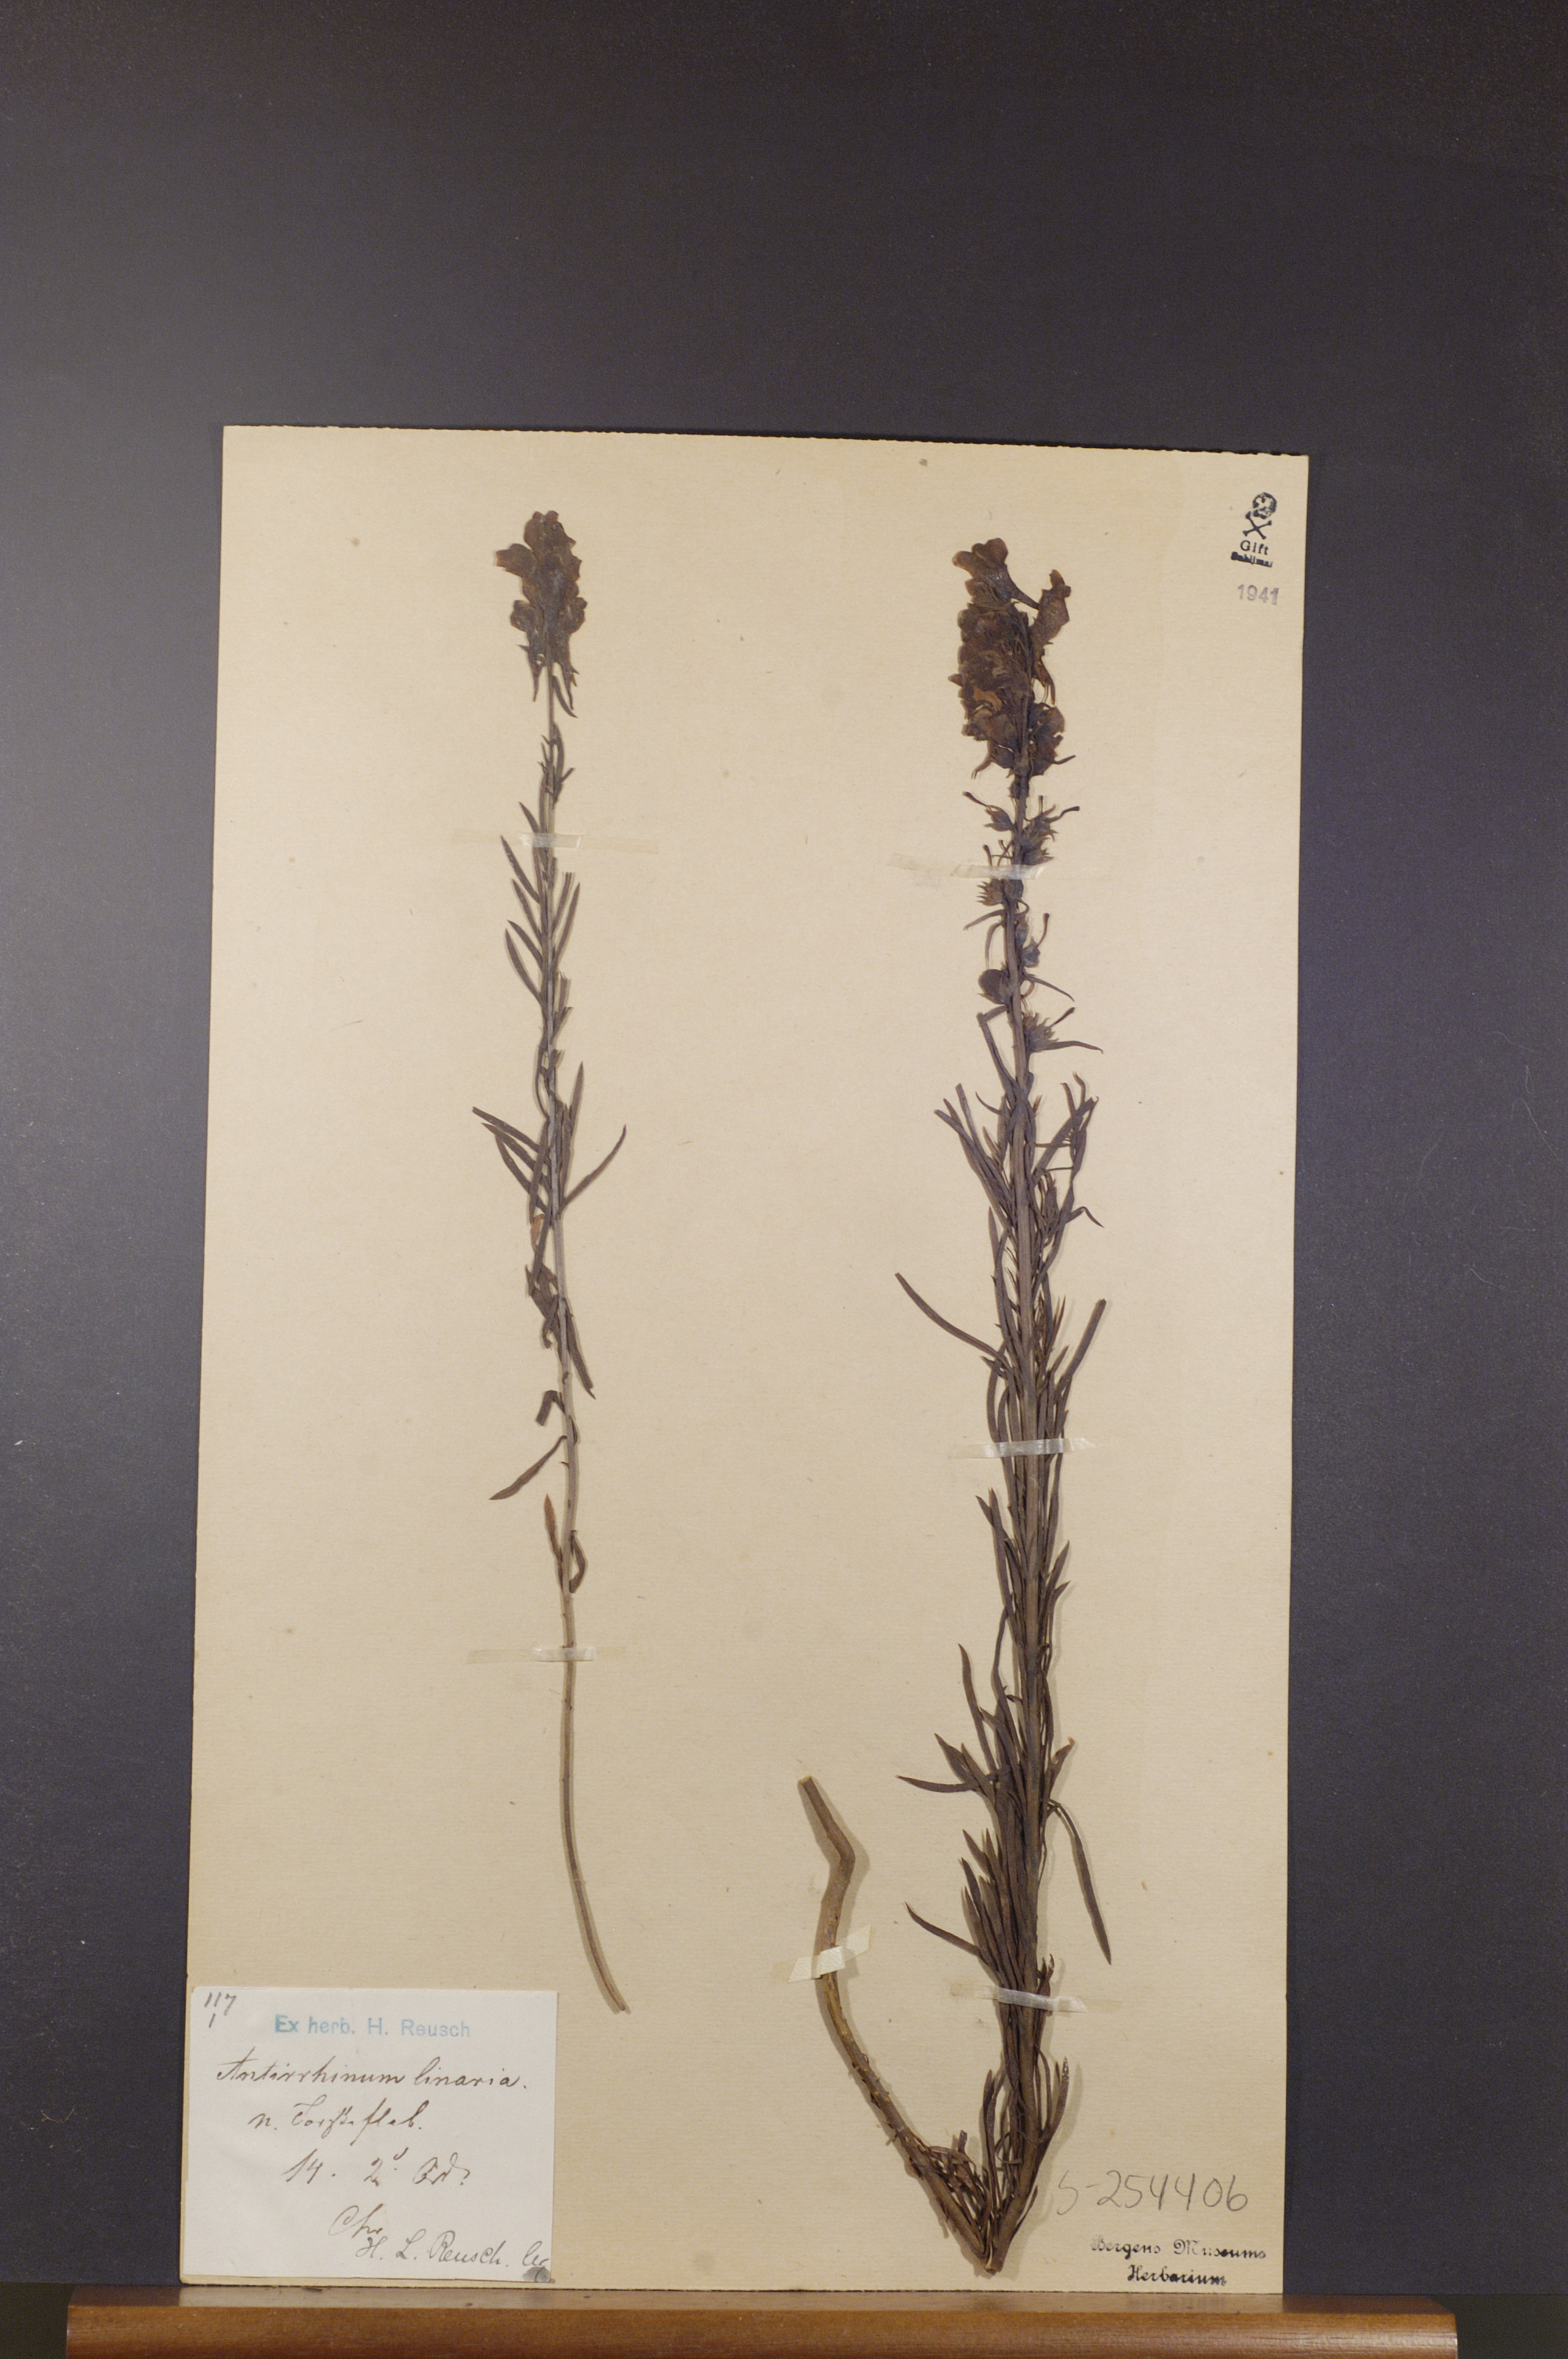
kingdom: Plantae
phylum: Tracheophyta
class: Magnoliopsida
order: Lamiales
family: Plantaginaceae
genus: Linaria
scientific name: Linaria vulgaris
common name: Butter and eggs
